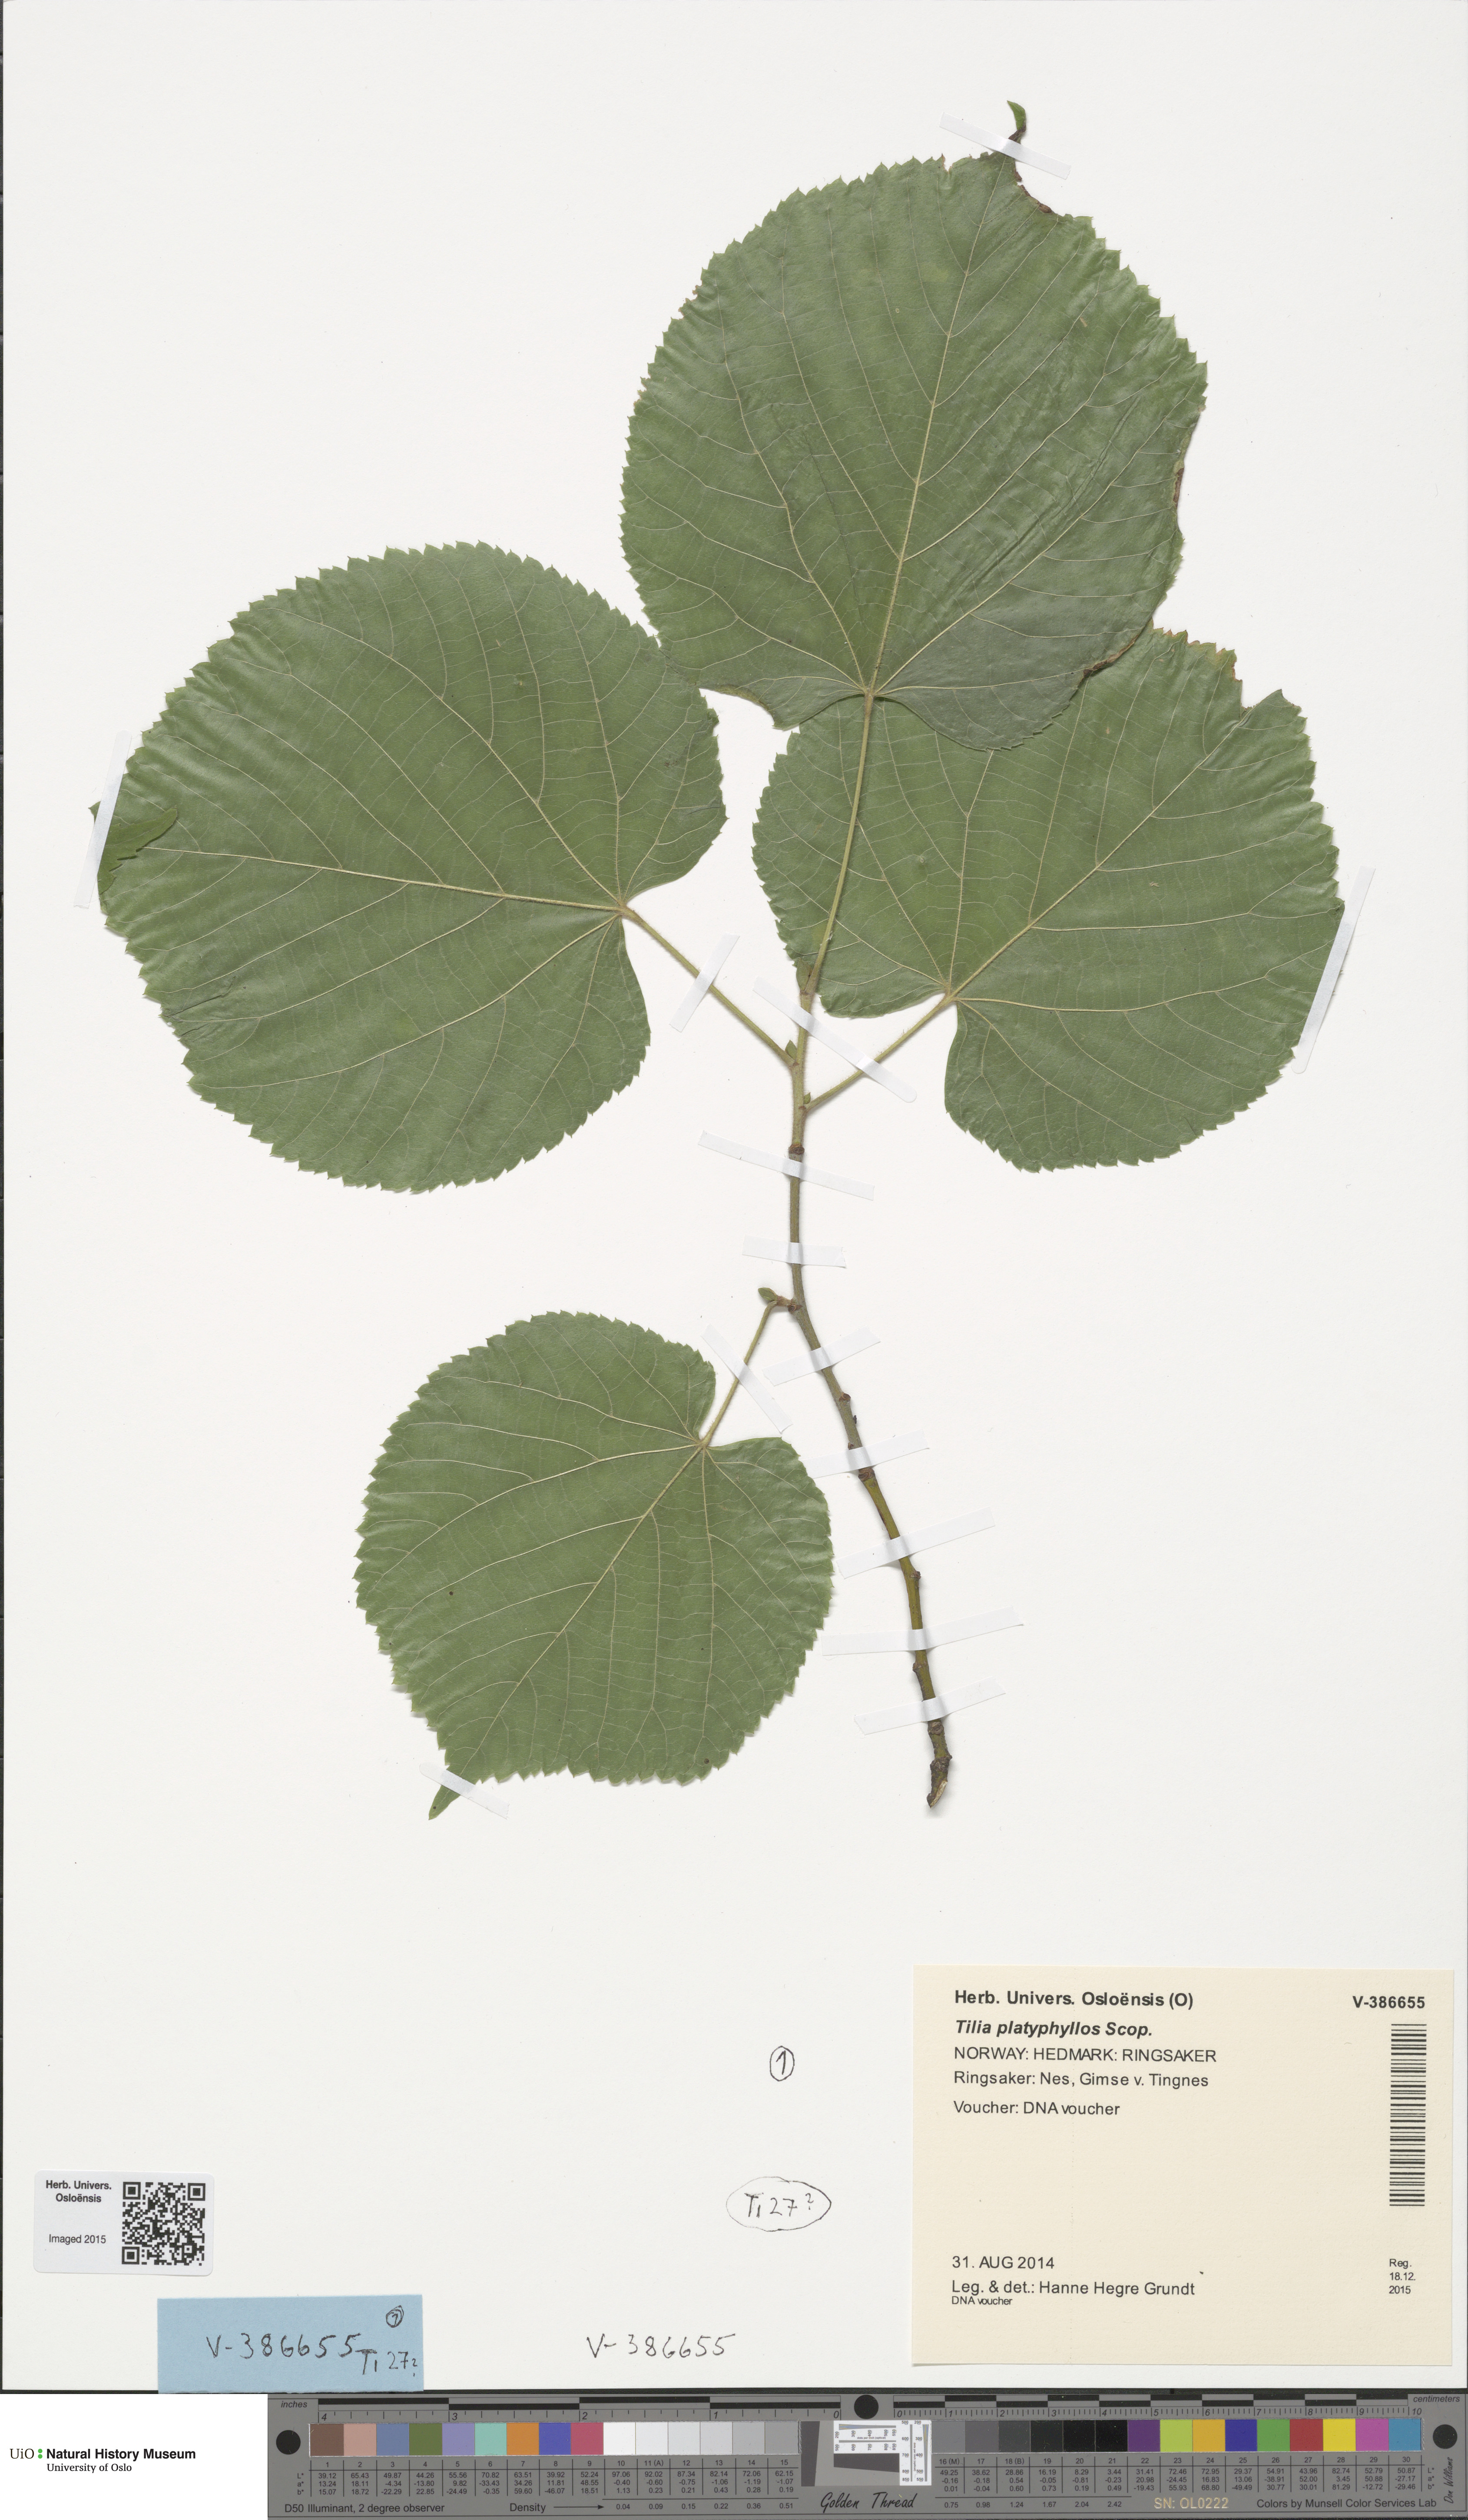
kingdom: Plantae
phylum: Tracheophyta
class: Magnoliopsida
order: Malvales
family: Malvaceae
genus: Tilia
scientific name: Tilia platyphyllos
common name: Large-leaved lime
